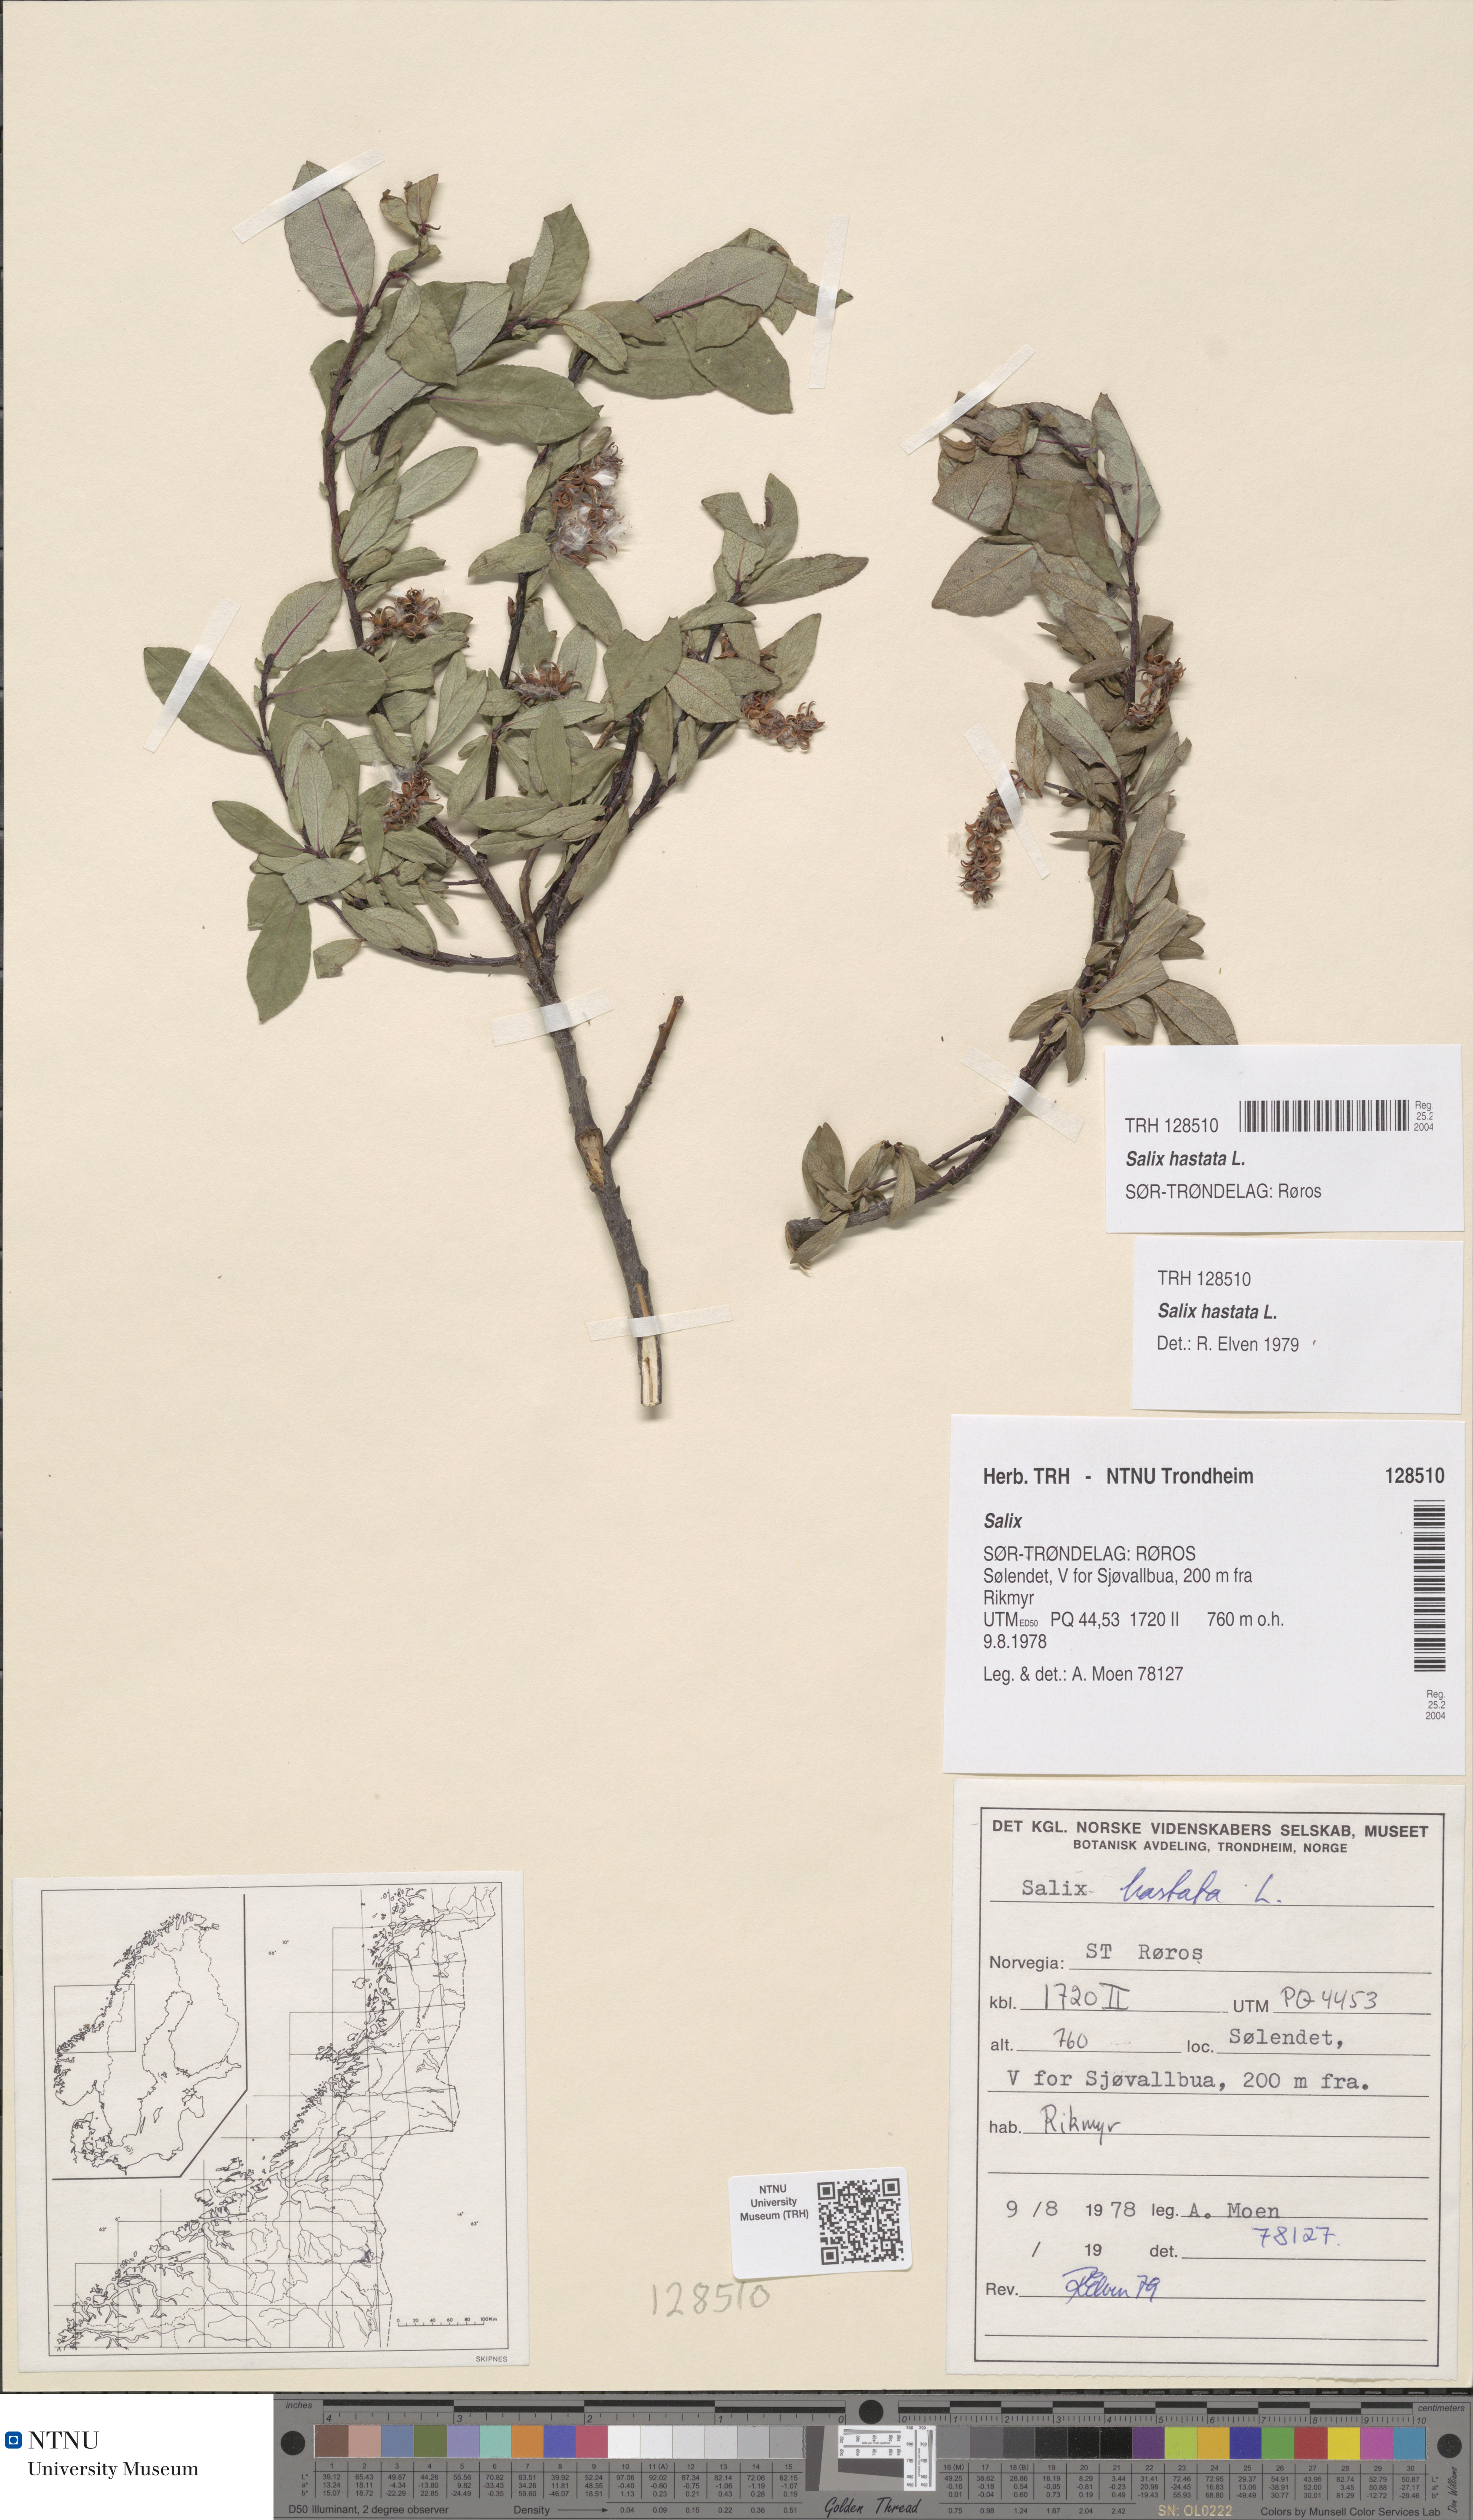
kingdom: Plantae
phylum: Tracheophyta
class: Magnoliopsida
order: Malpighiales
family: Salicaceae
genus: Salix
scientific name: Salix hastata
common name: Halberd willow
